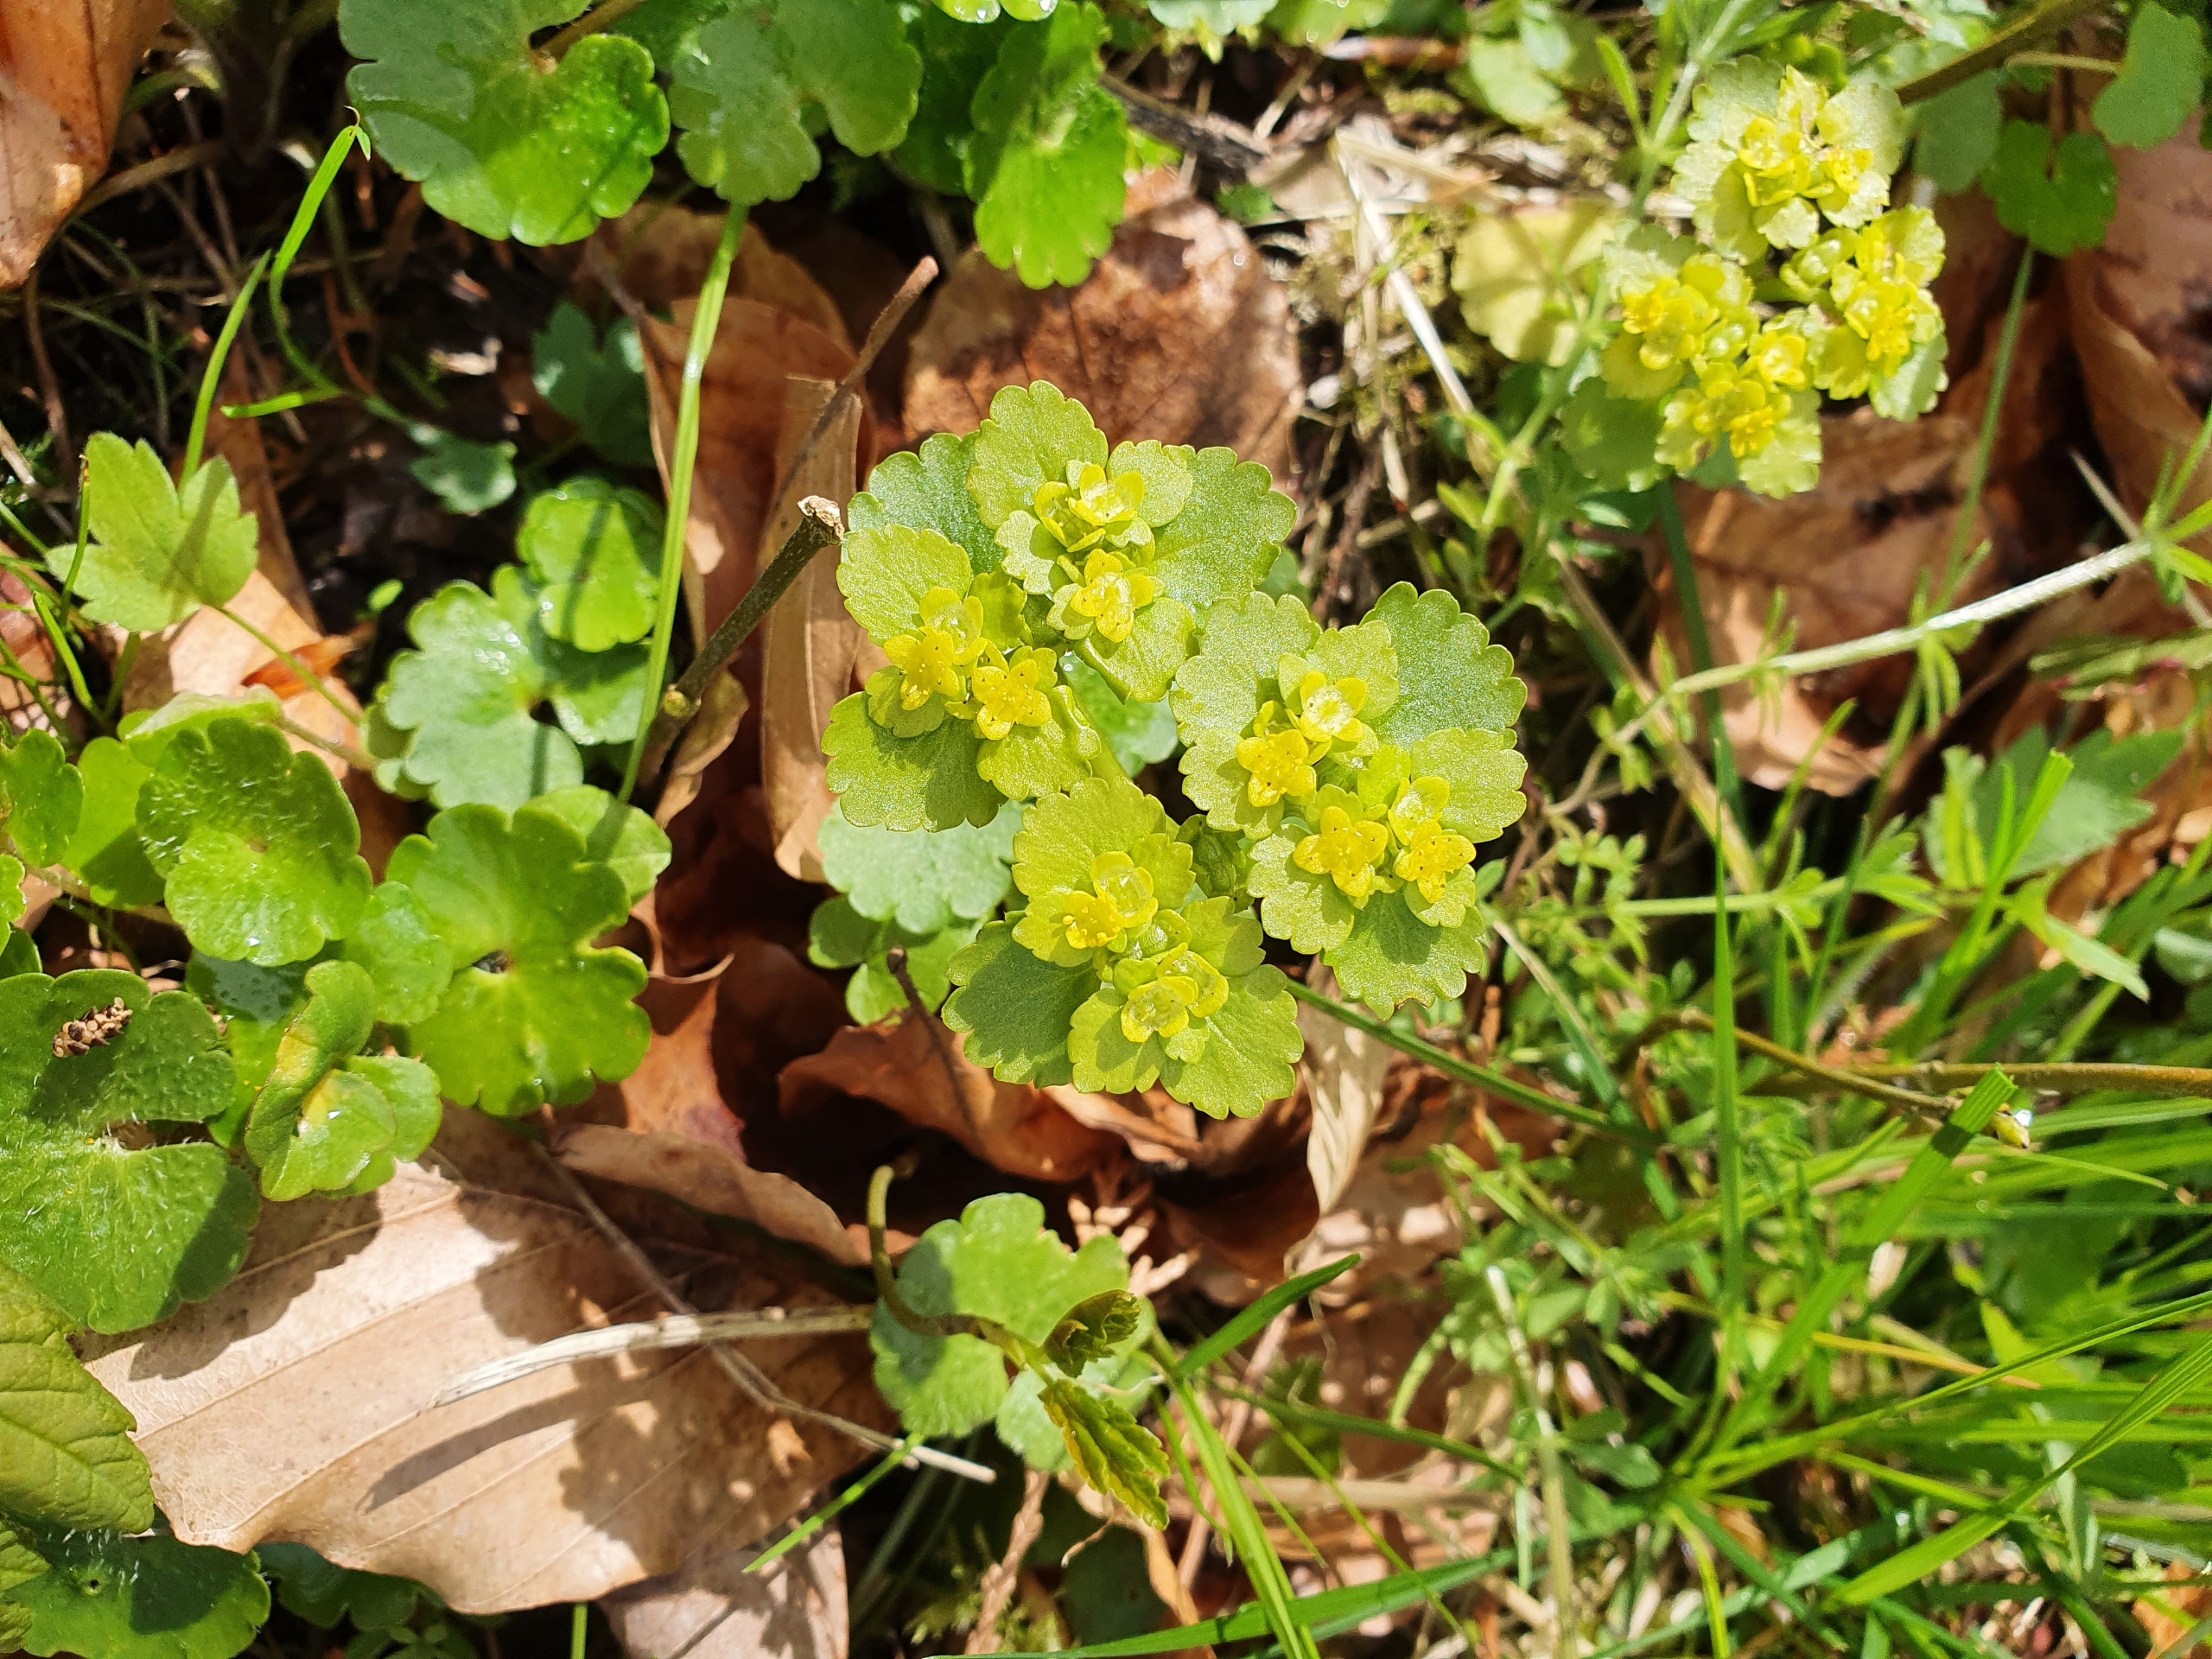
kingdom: Plantae
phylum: Tracheophyta
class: Magnoliopsida
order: Saxifragales
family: Saxifragaceae
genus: Chrysosplenium
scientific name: Chrysosplenium alternifolium
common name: Almindelig milturt
